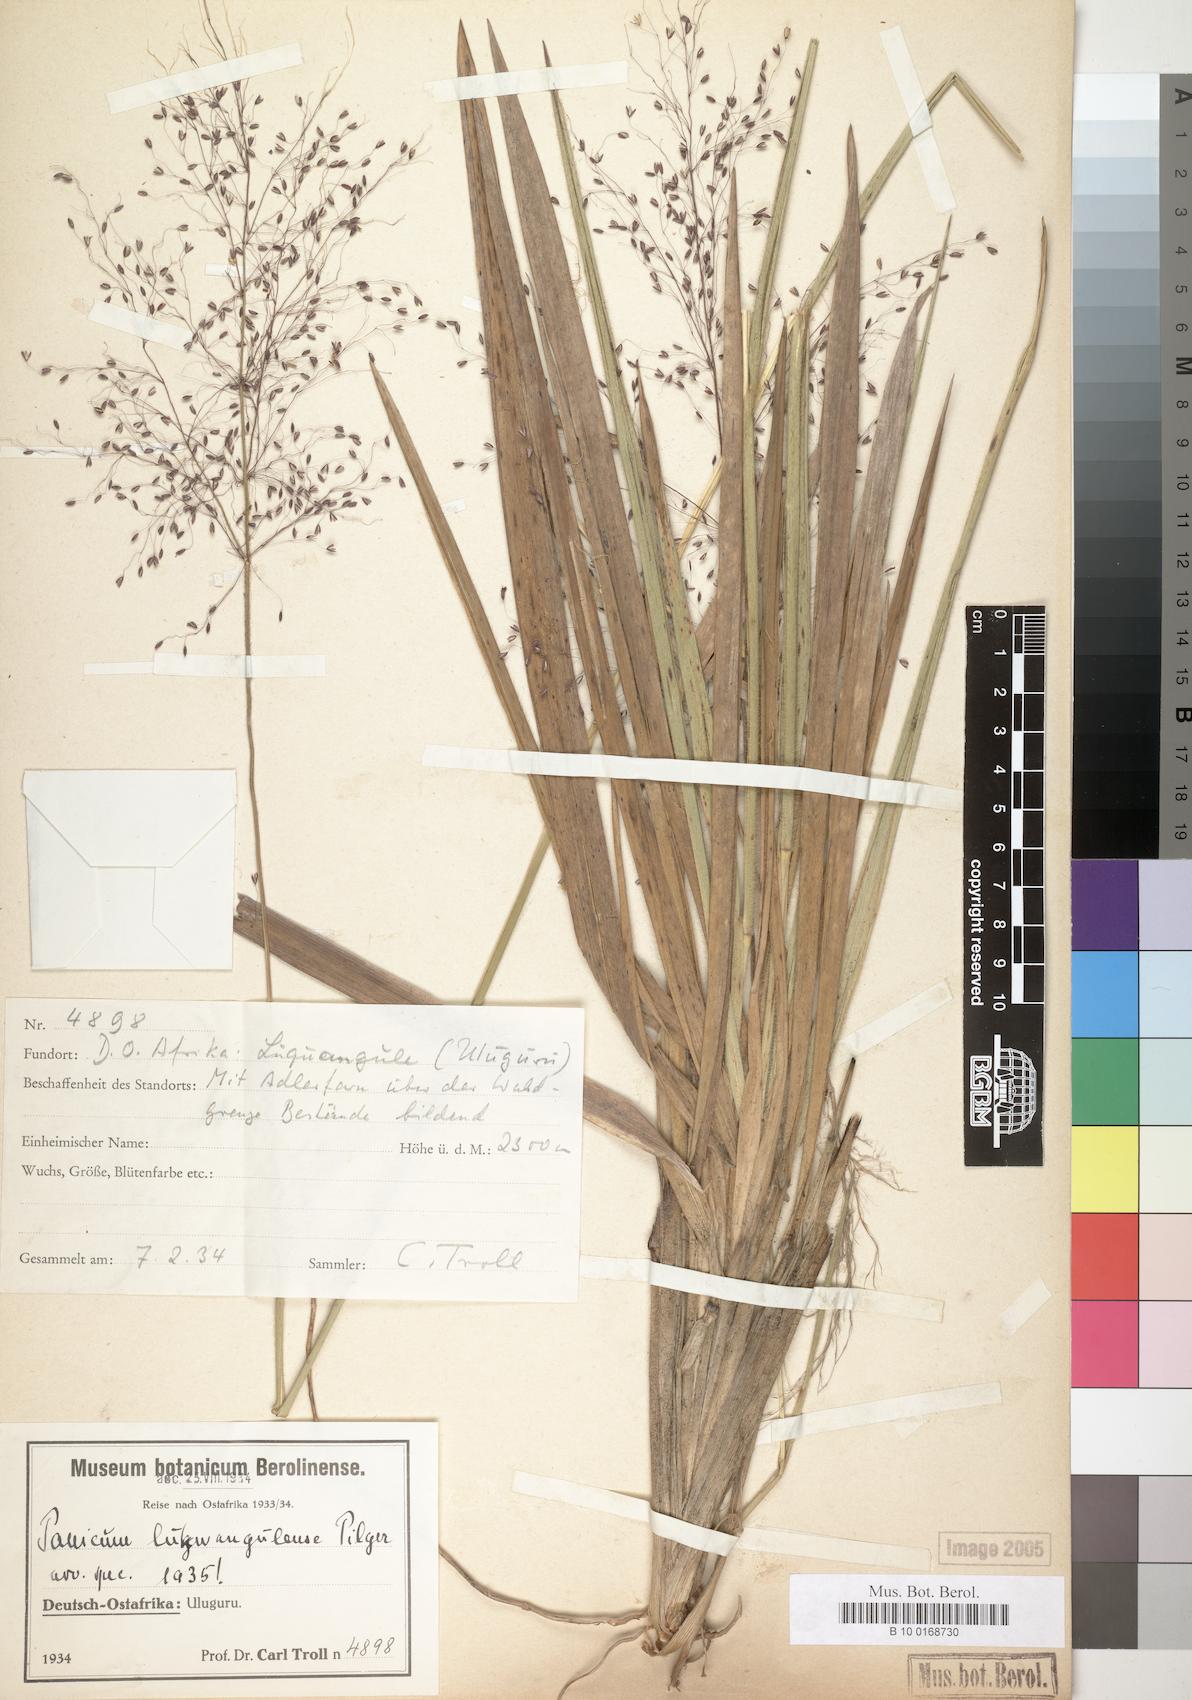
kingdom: Plantae
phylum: Tracheophyta
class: Liliopsida
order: Poales
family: Poaceae
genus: Adenochloa
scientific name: Adenochloa lukwangulense
